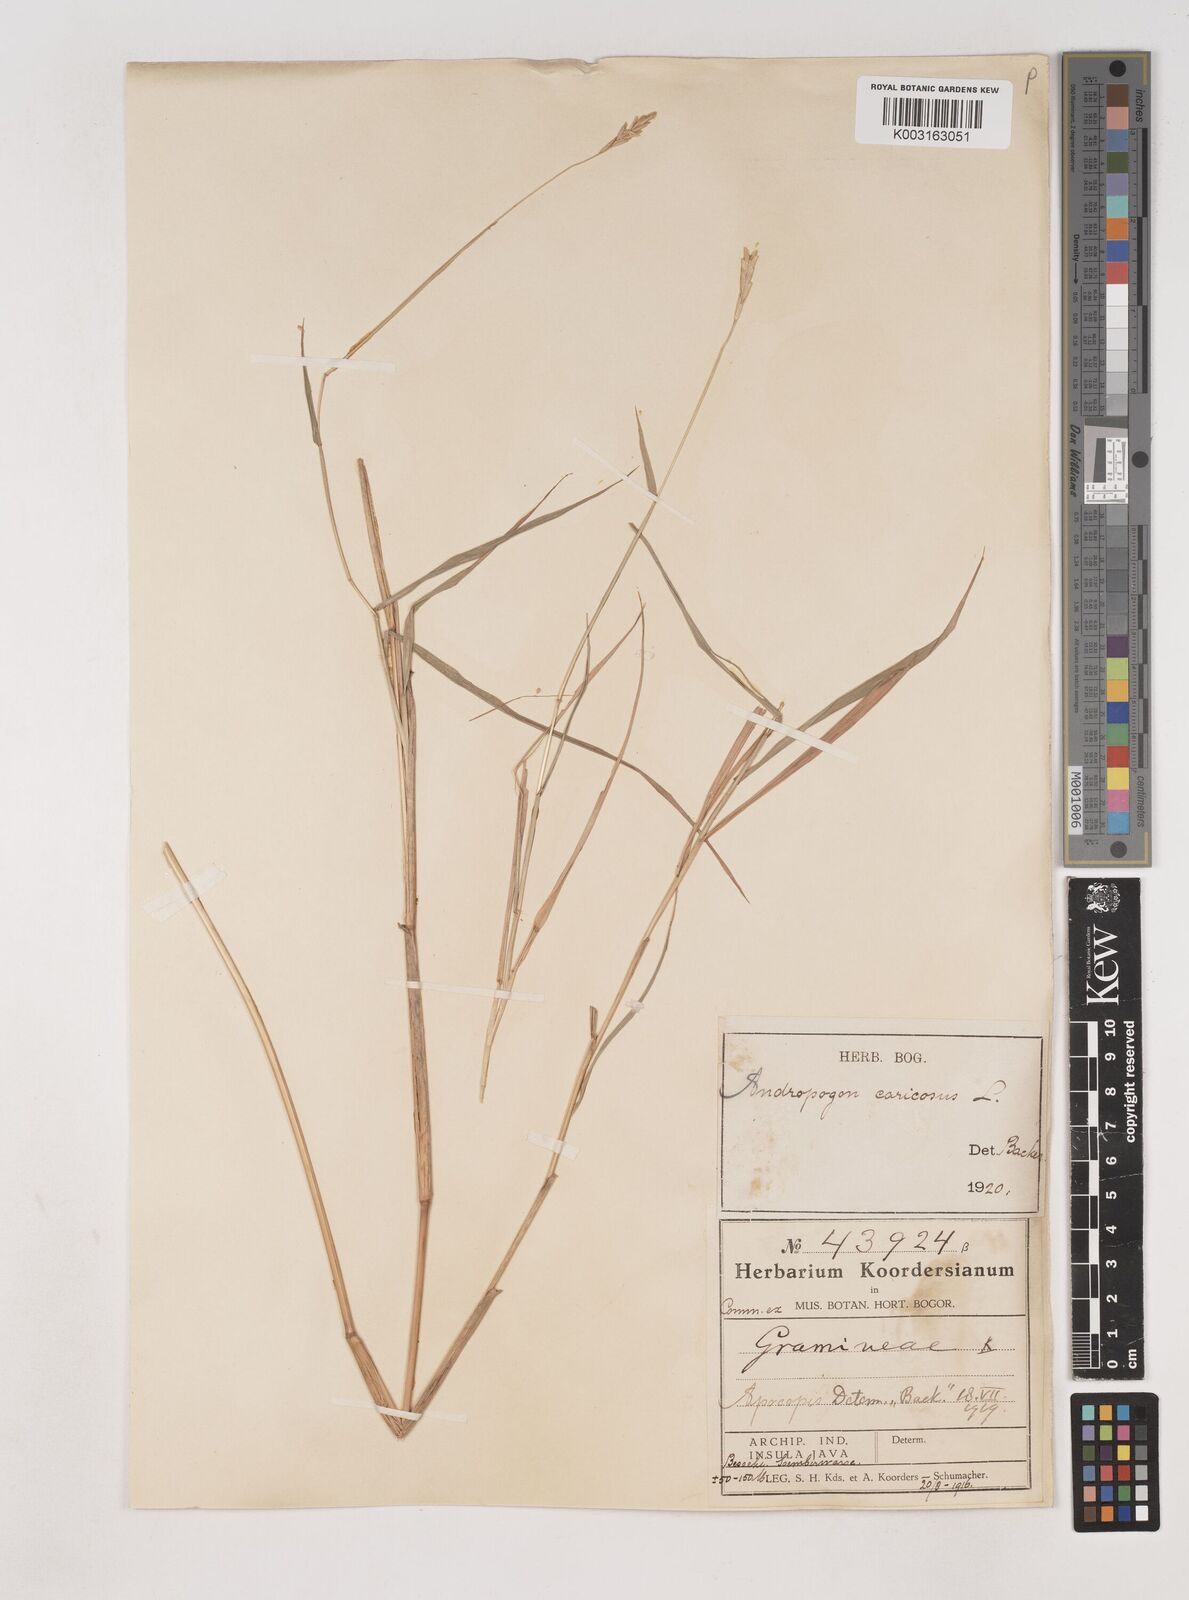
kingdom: Plantae
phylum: Tracheophyta
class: Liliopsida
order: Poales
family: Poaceae
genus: Dichanthium
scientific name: Dichanthium caricosum
